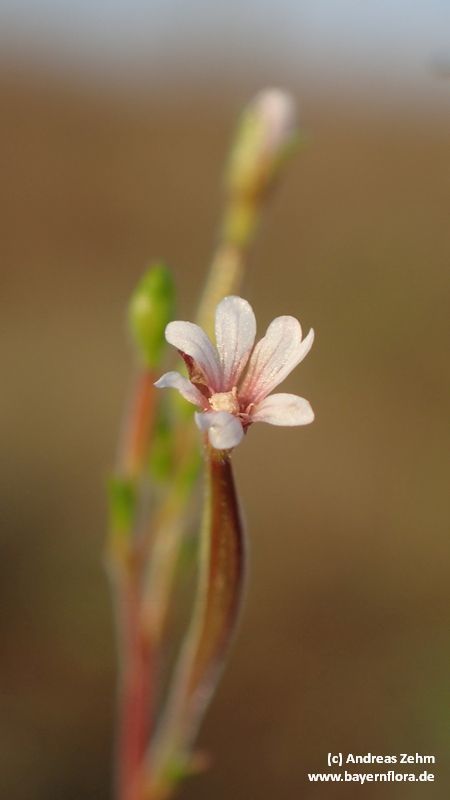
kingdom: Plantae
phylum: Tracheophyta
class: Magnoliopsida
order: Myrtales
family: Onagraceae
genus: Epilobium
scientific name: Epilobium brachycarpum
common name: Annual willowherb
